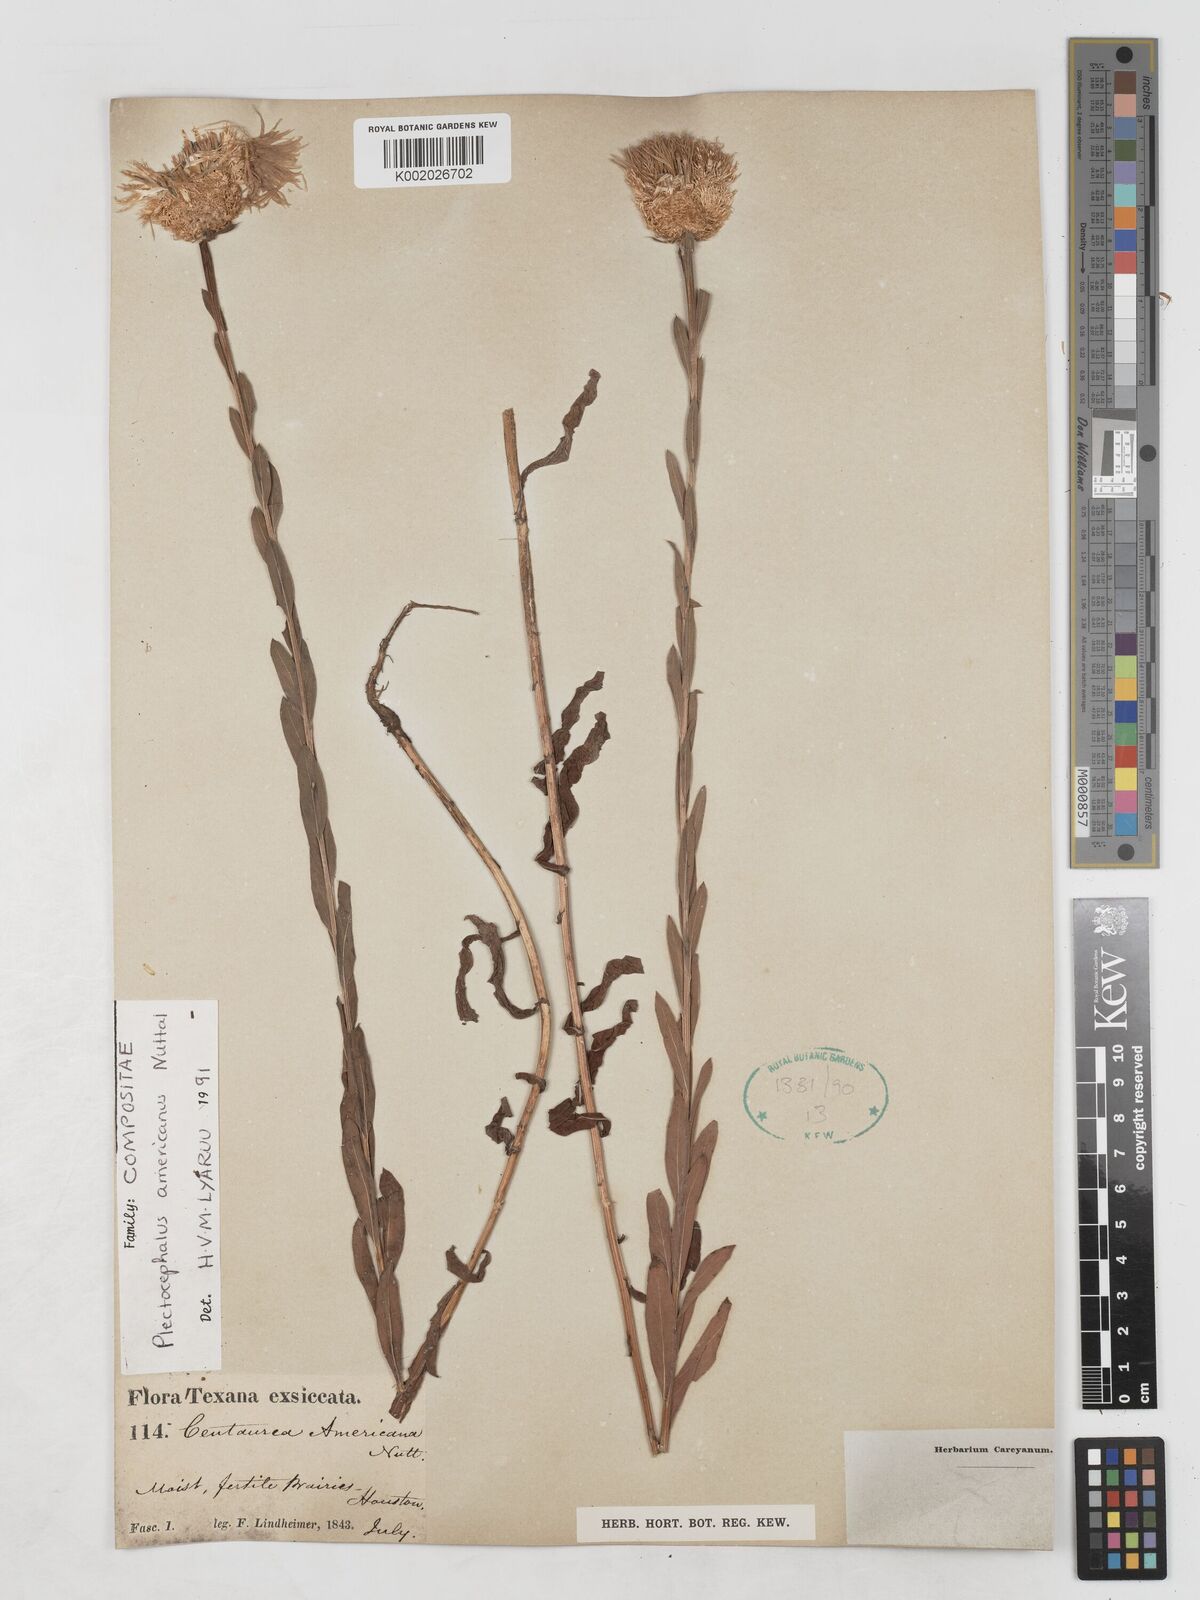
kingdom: Plantae
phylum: Tracheophyta
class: Magnoliopsida
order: Asterales
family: Asteraceae
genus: Plectocephalus
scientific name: Plectocephalus americanus
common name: American basket-flower
